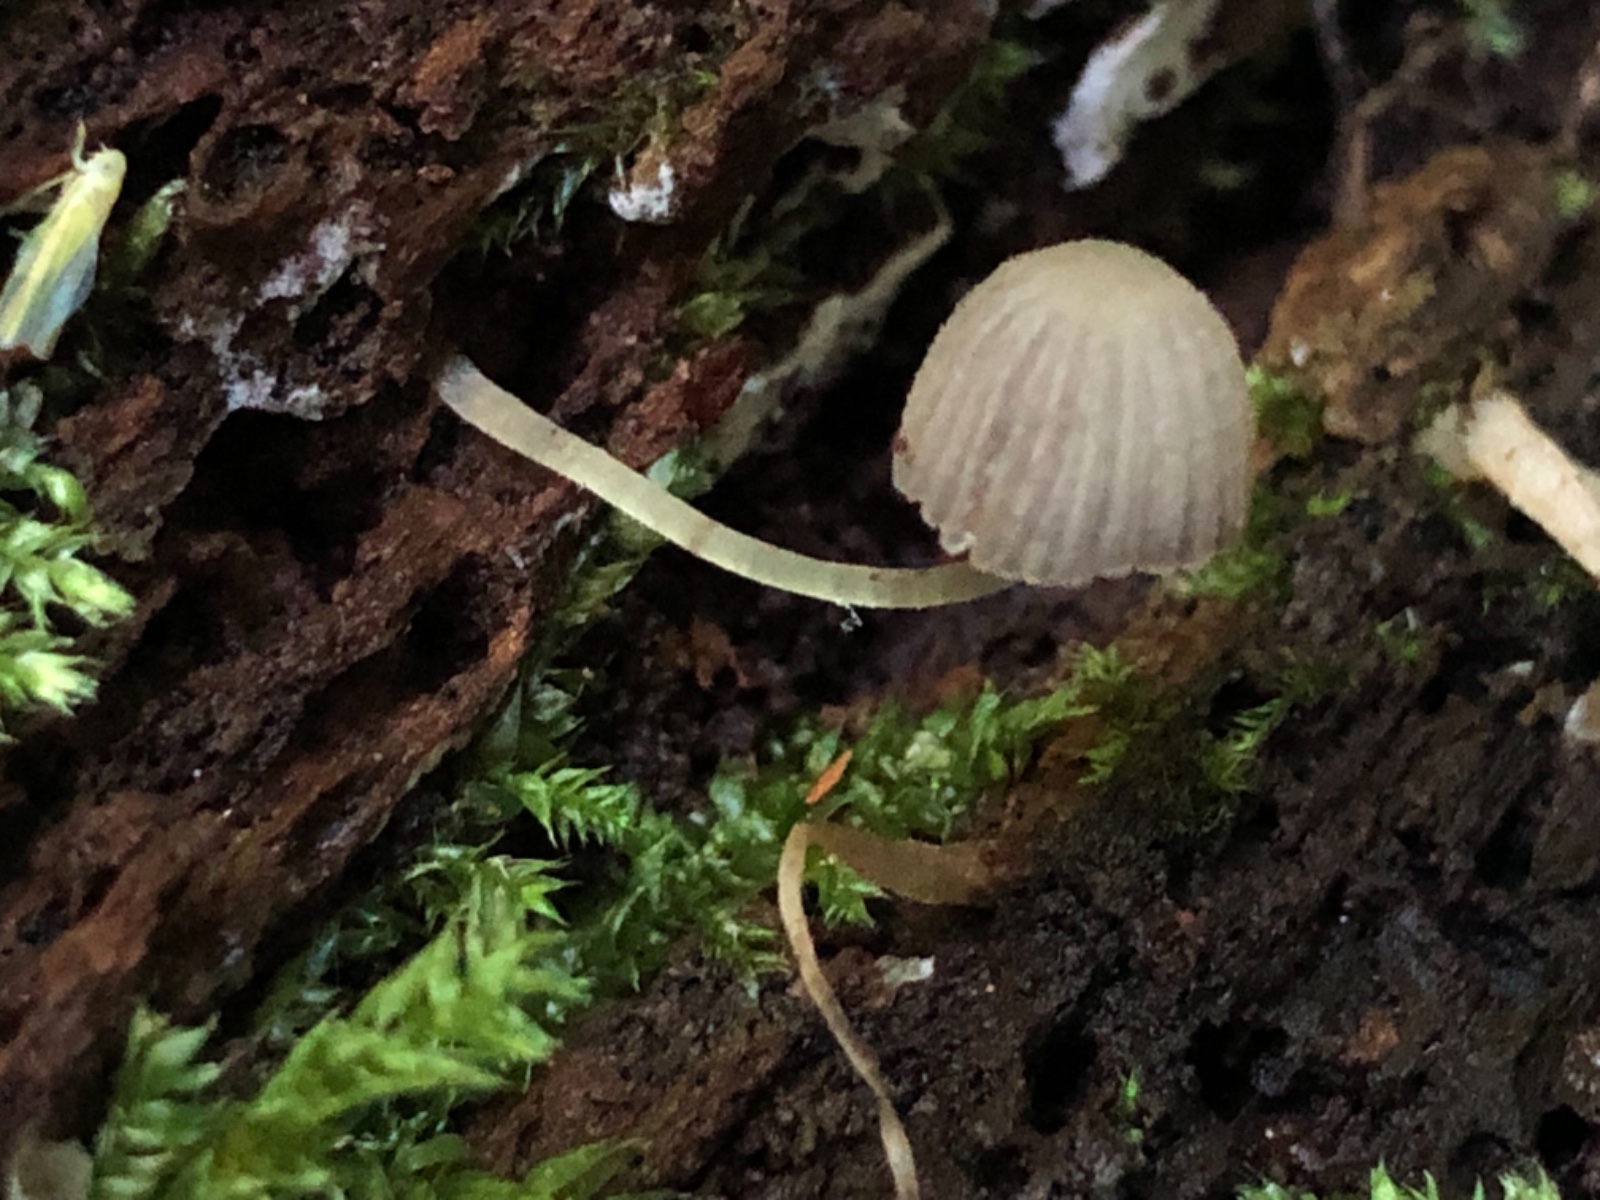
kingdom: Fungi
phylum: Basidiomycota
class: Agaricomycetes
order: Agaricales
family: Psathyrellaceae
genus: Coprinellus
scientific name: Coprinellus disseminatus
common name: bredsået blækhat
